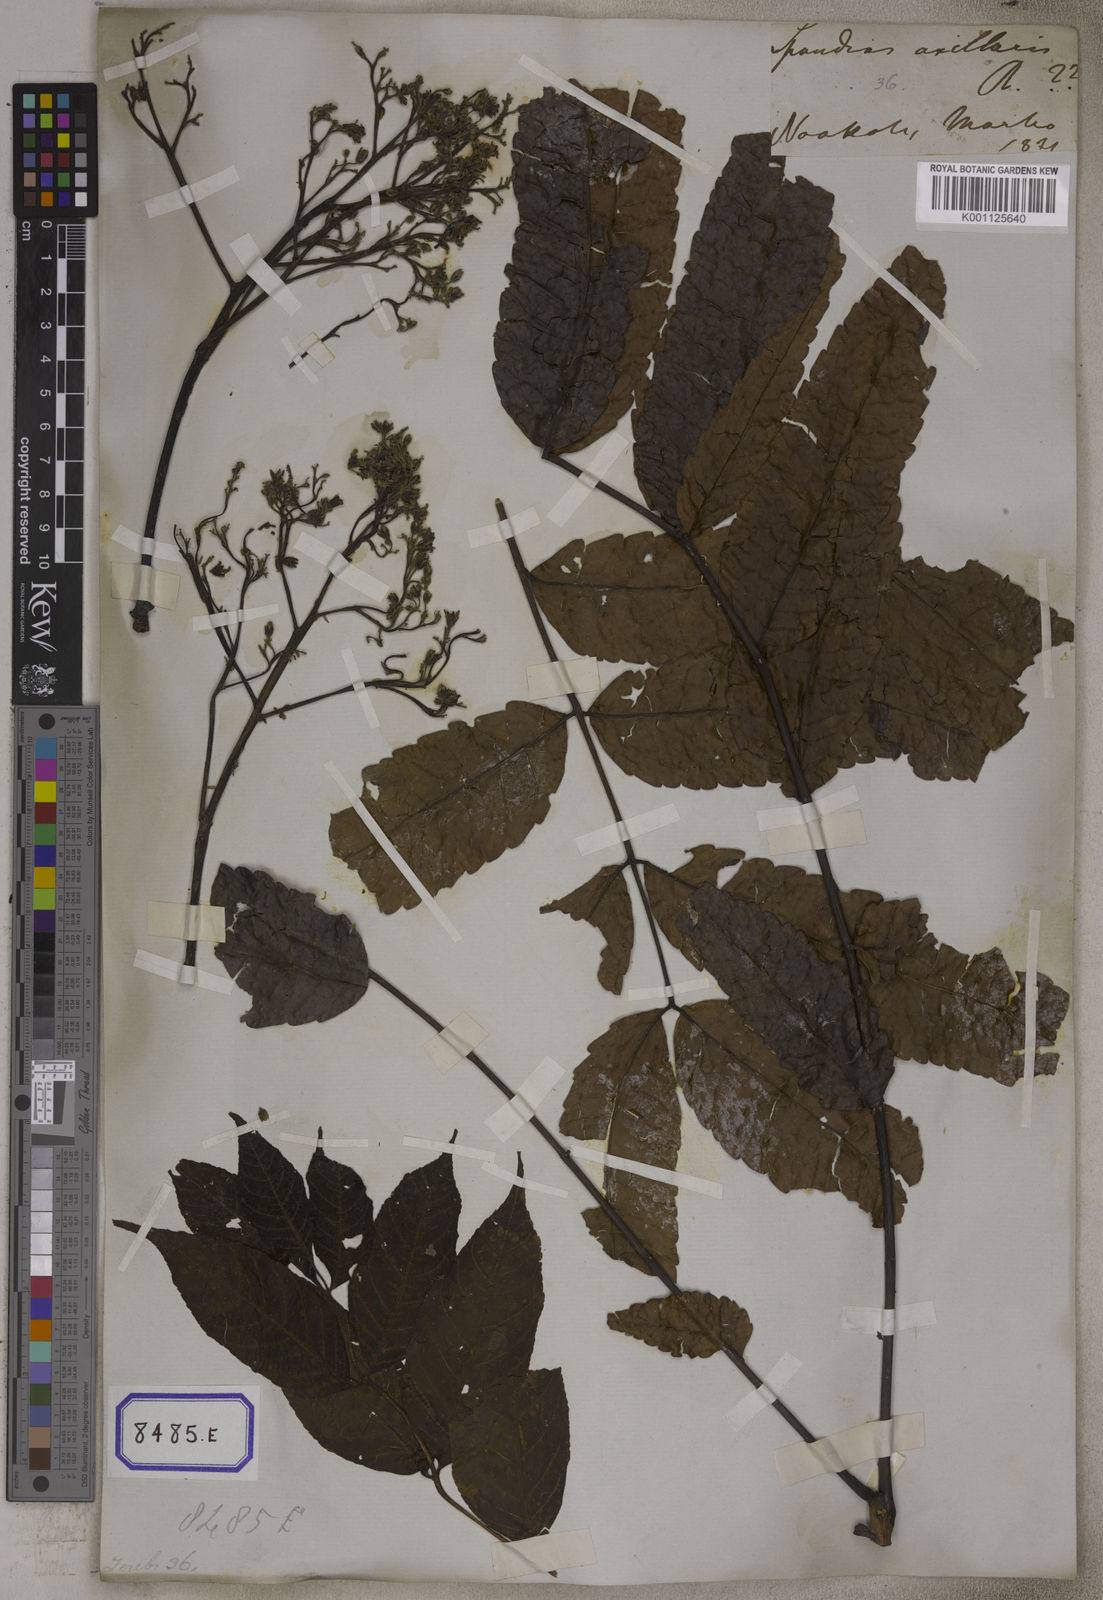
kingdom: Plantae
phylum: Tracheophyta
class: Magnoliopsida
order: Sapindales
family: Burseraceae
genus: Garuga
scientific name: Garuga pinnata
